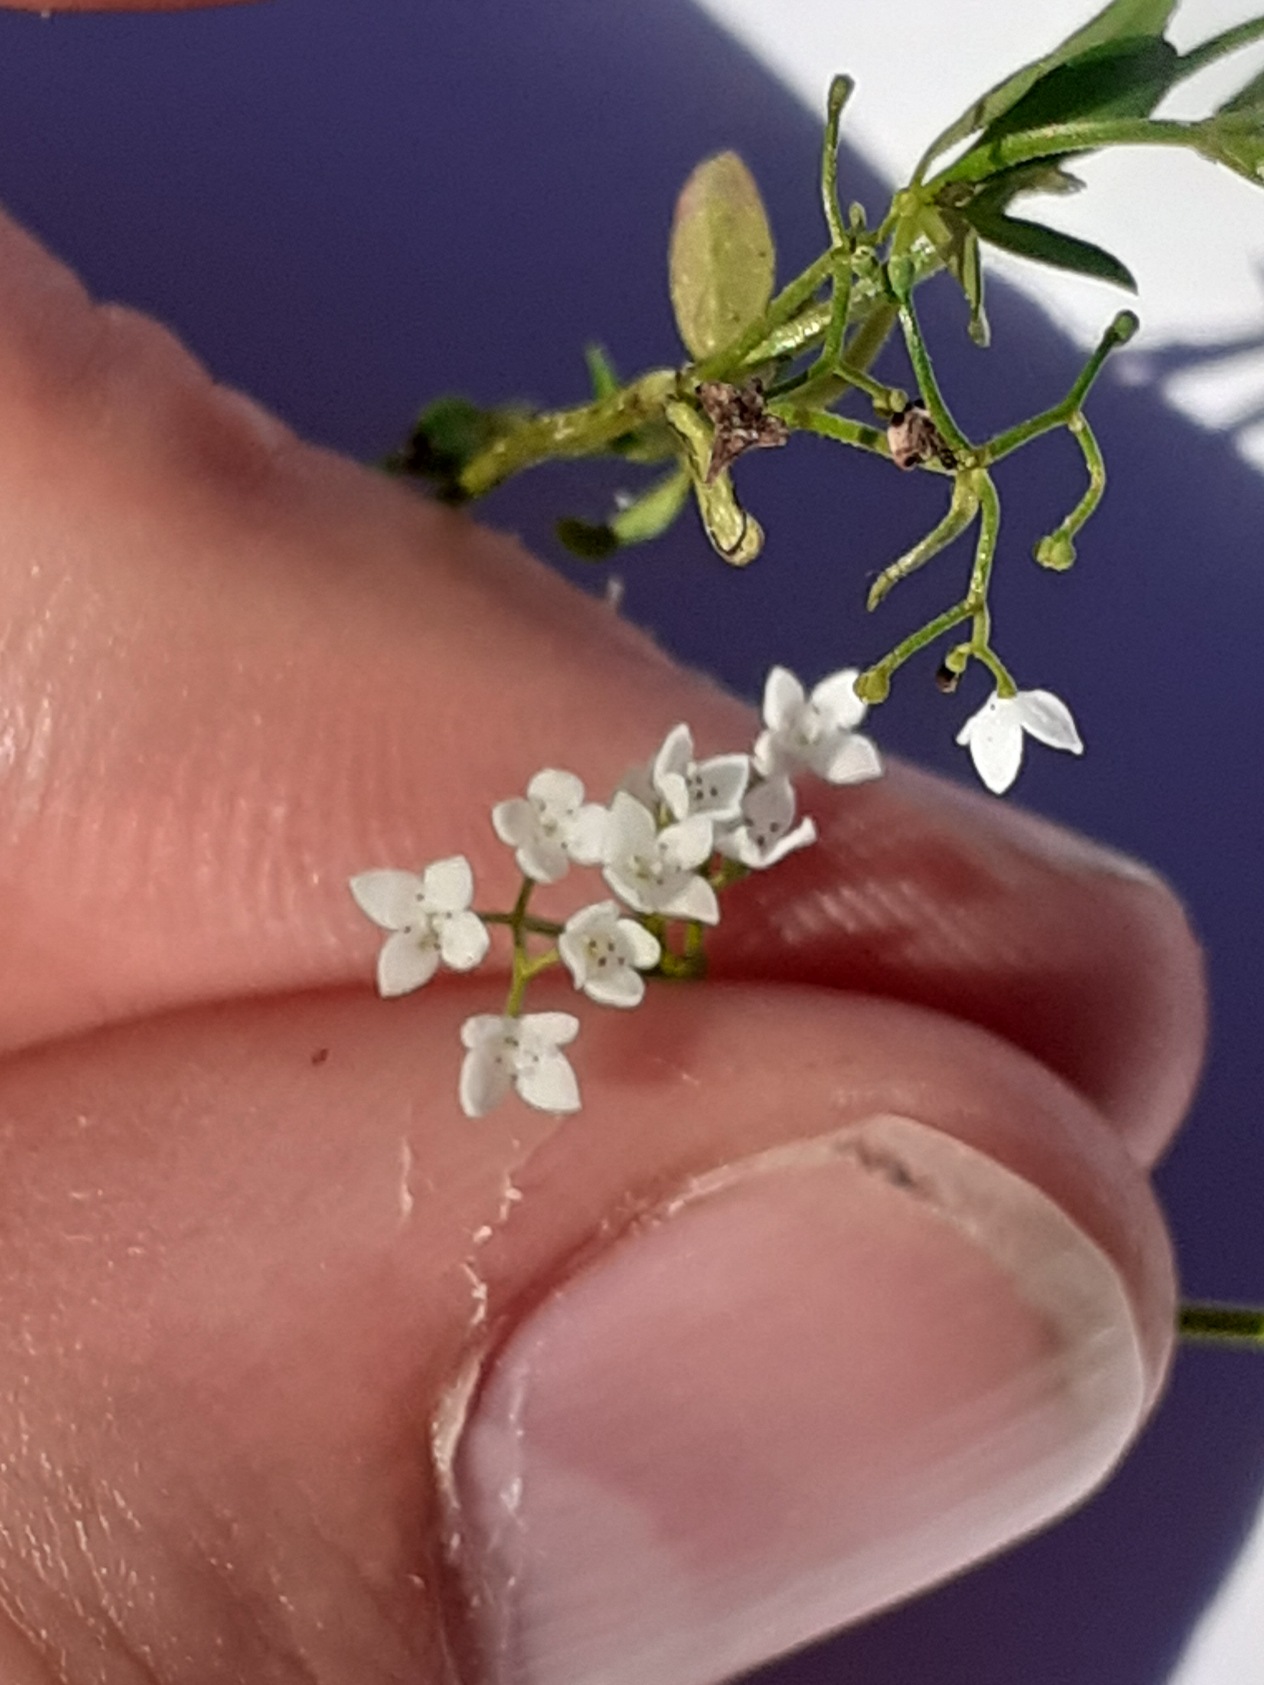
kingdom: Plantae
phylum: Tracheophyta
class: Magnoliopsida
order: Gentianales
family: Rubiaceae
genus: Galium
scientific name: Galium palustre
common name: Kær-snerre
